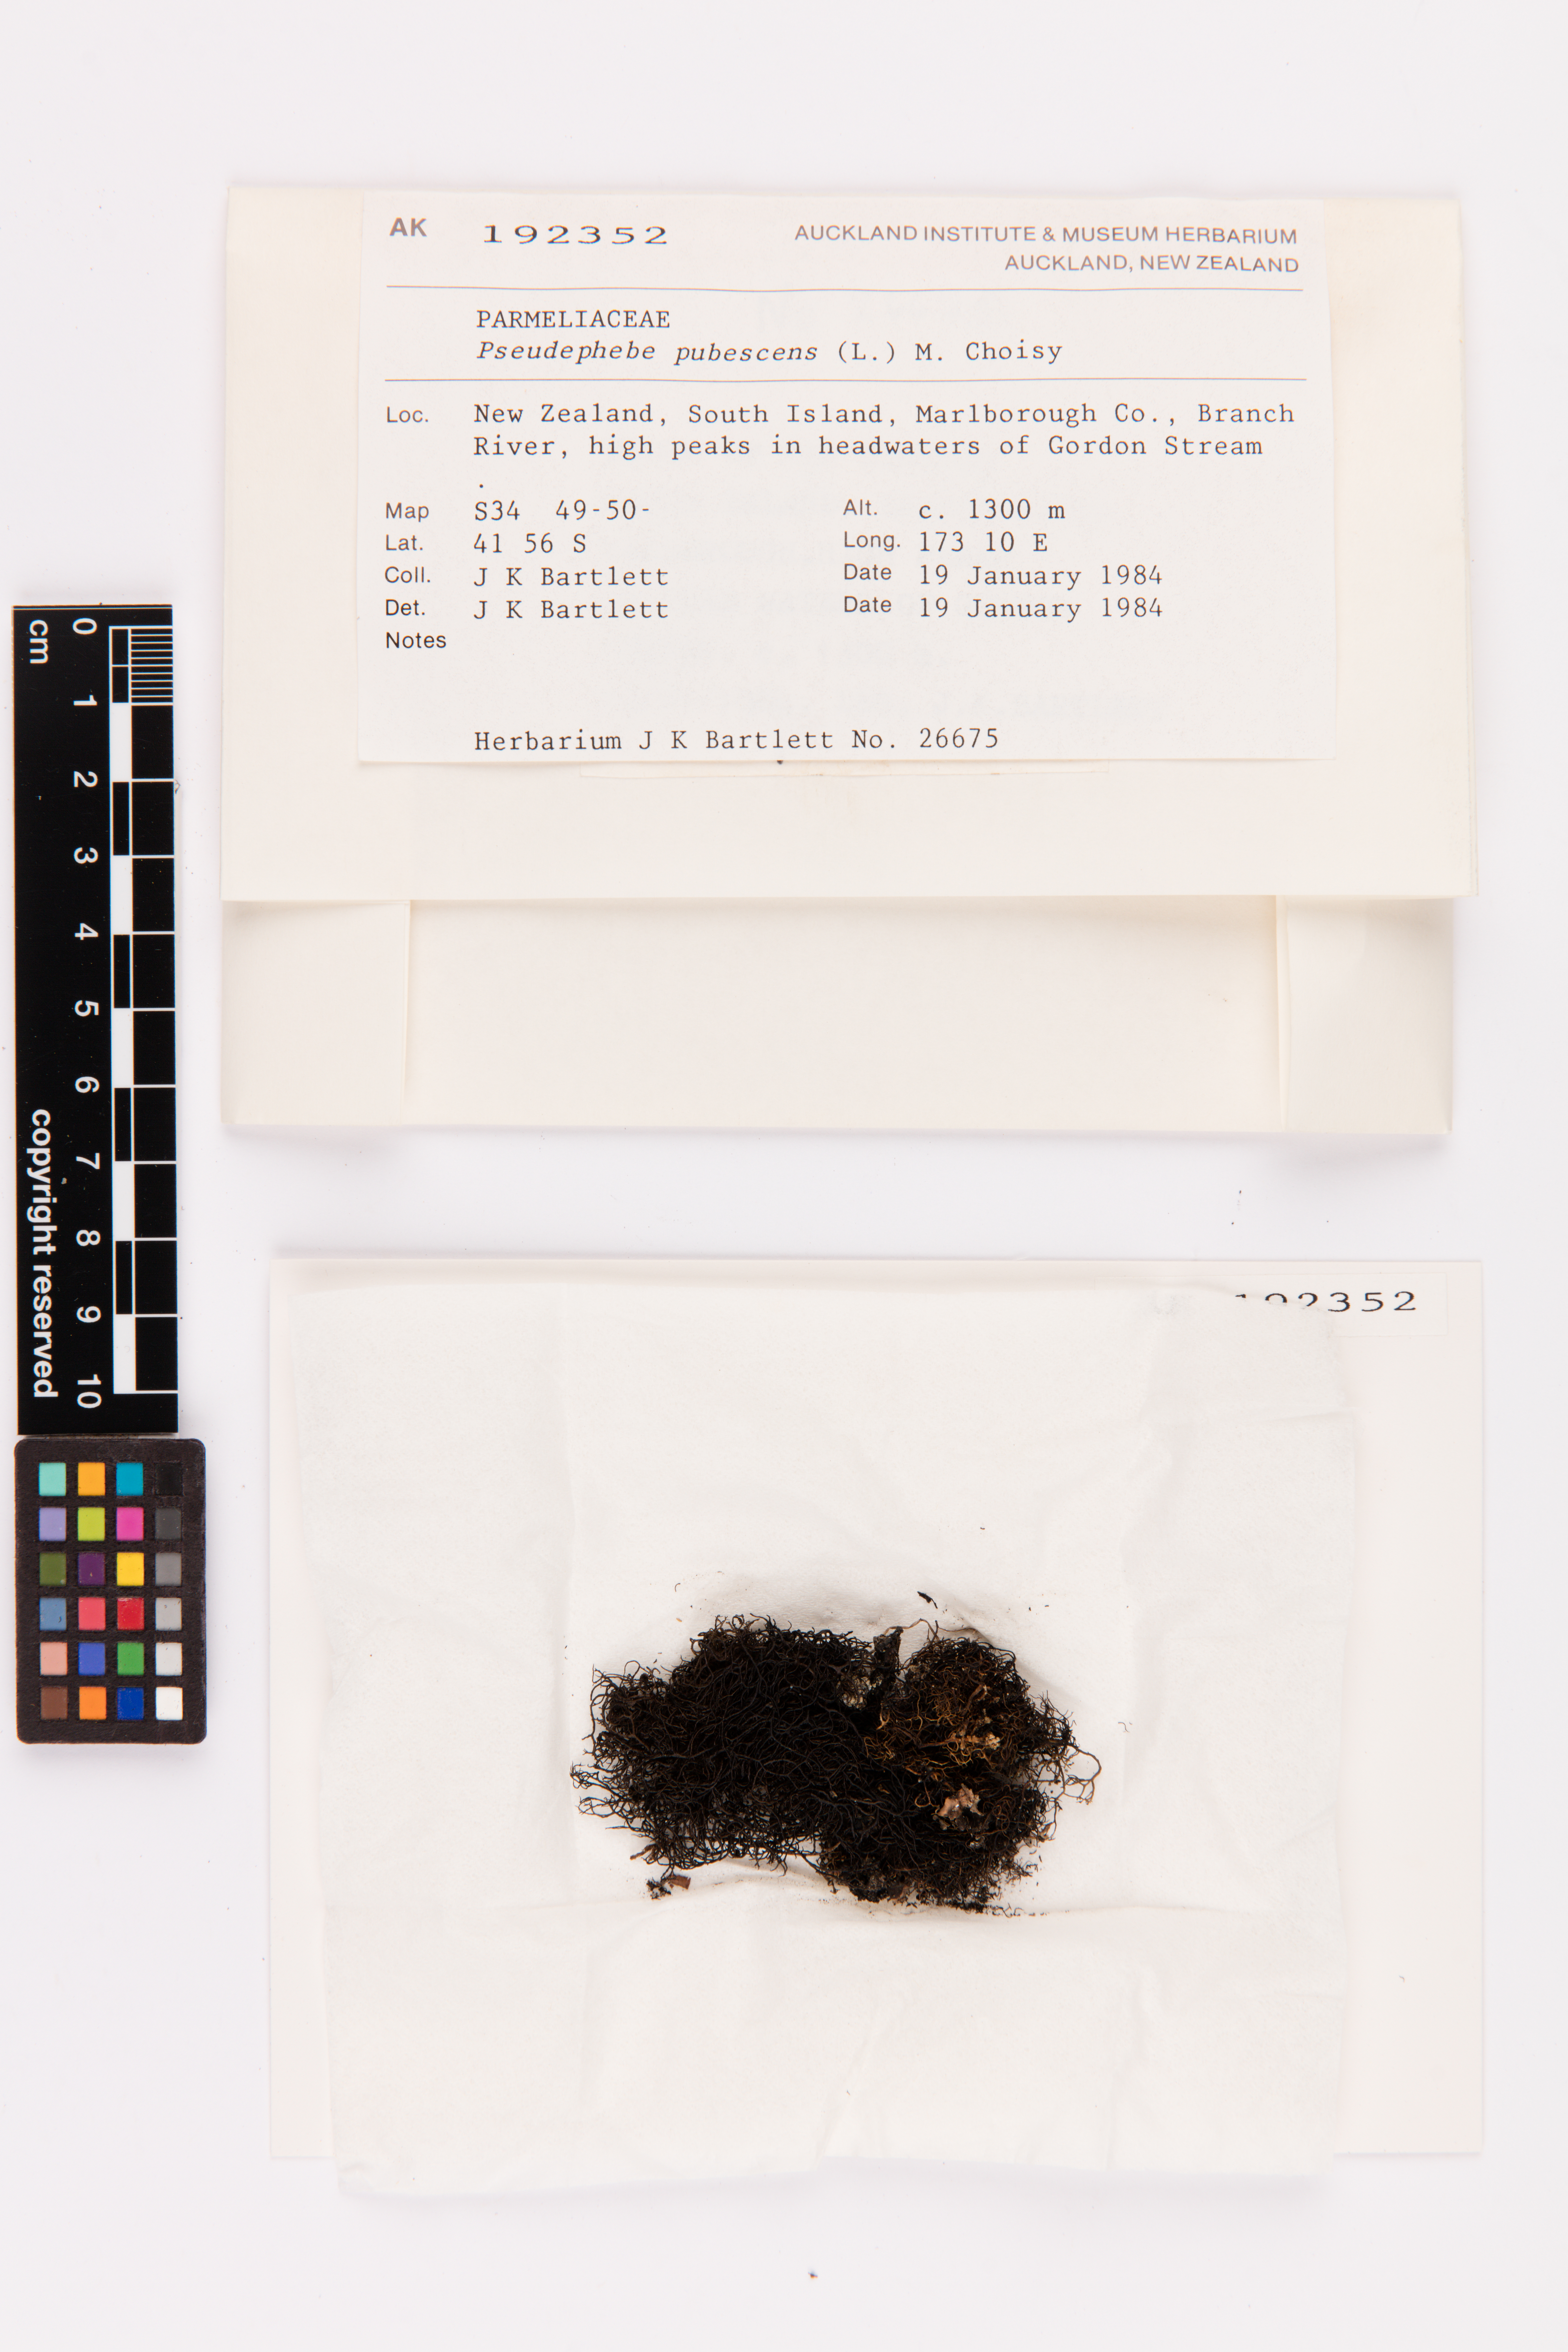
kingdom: Fungi
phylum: Ascomycota
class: Lecanoromycetes
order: Lecanorales
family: Parmeliaceae
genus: Pseudephebe
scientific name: Pseudephebe pubescens
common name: Fine rockwool lichen
